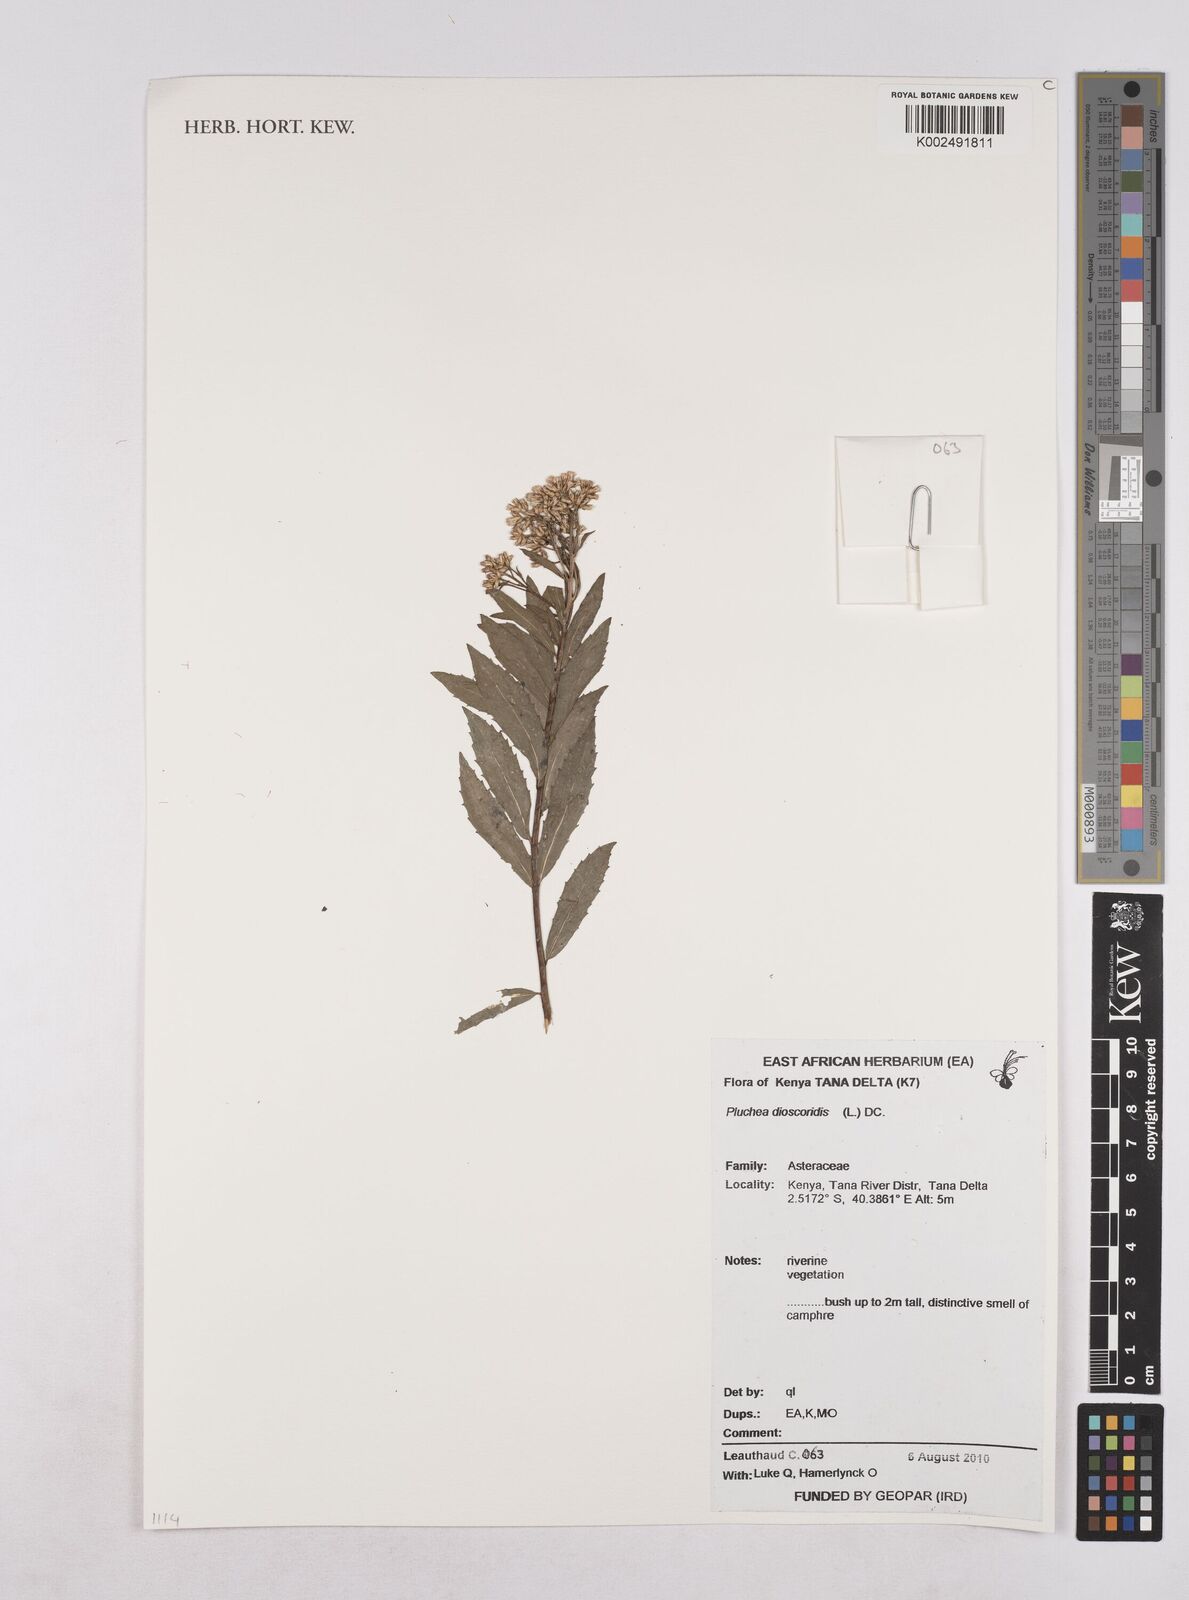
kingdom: Plantae
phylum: Tracheophyta
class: Magnoliopsida
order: Asterales
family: Asteraceae
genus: Pluchea
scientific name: Pluchea dioscoridis
